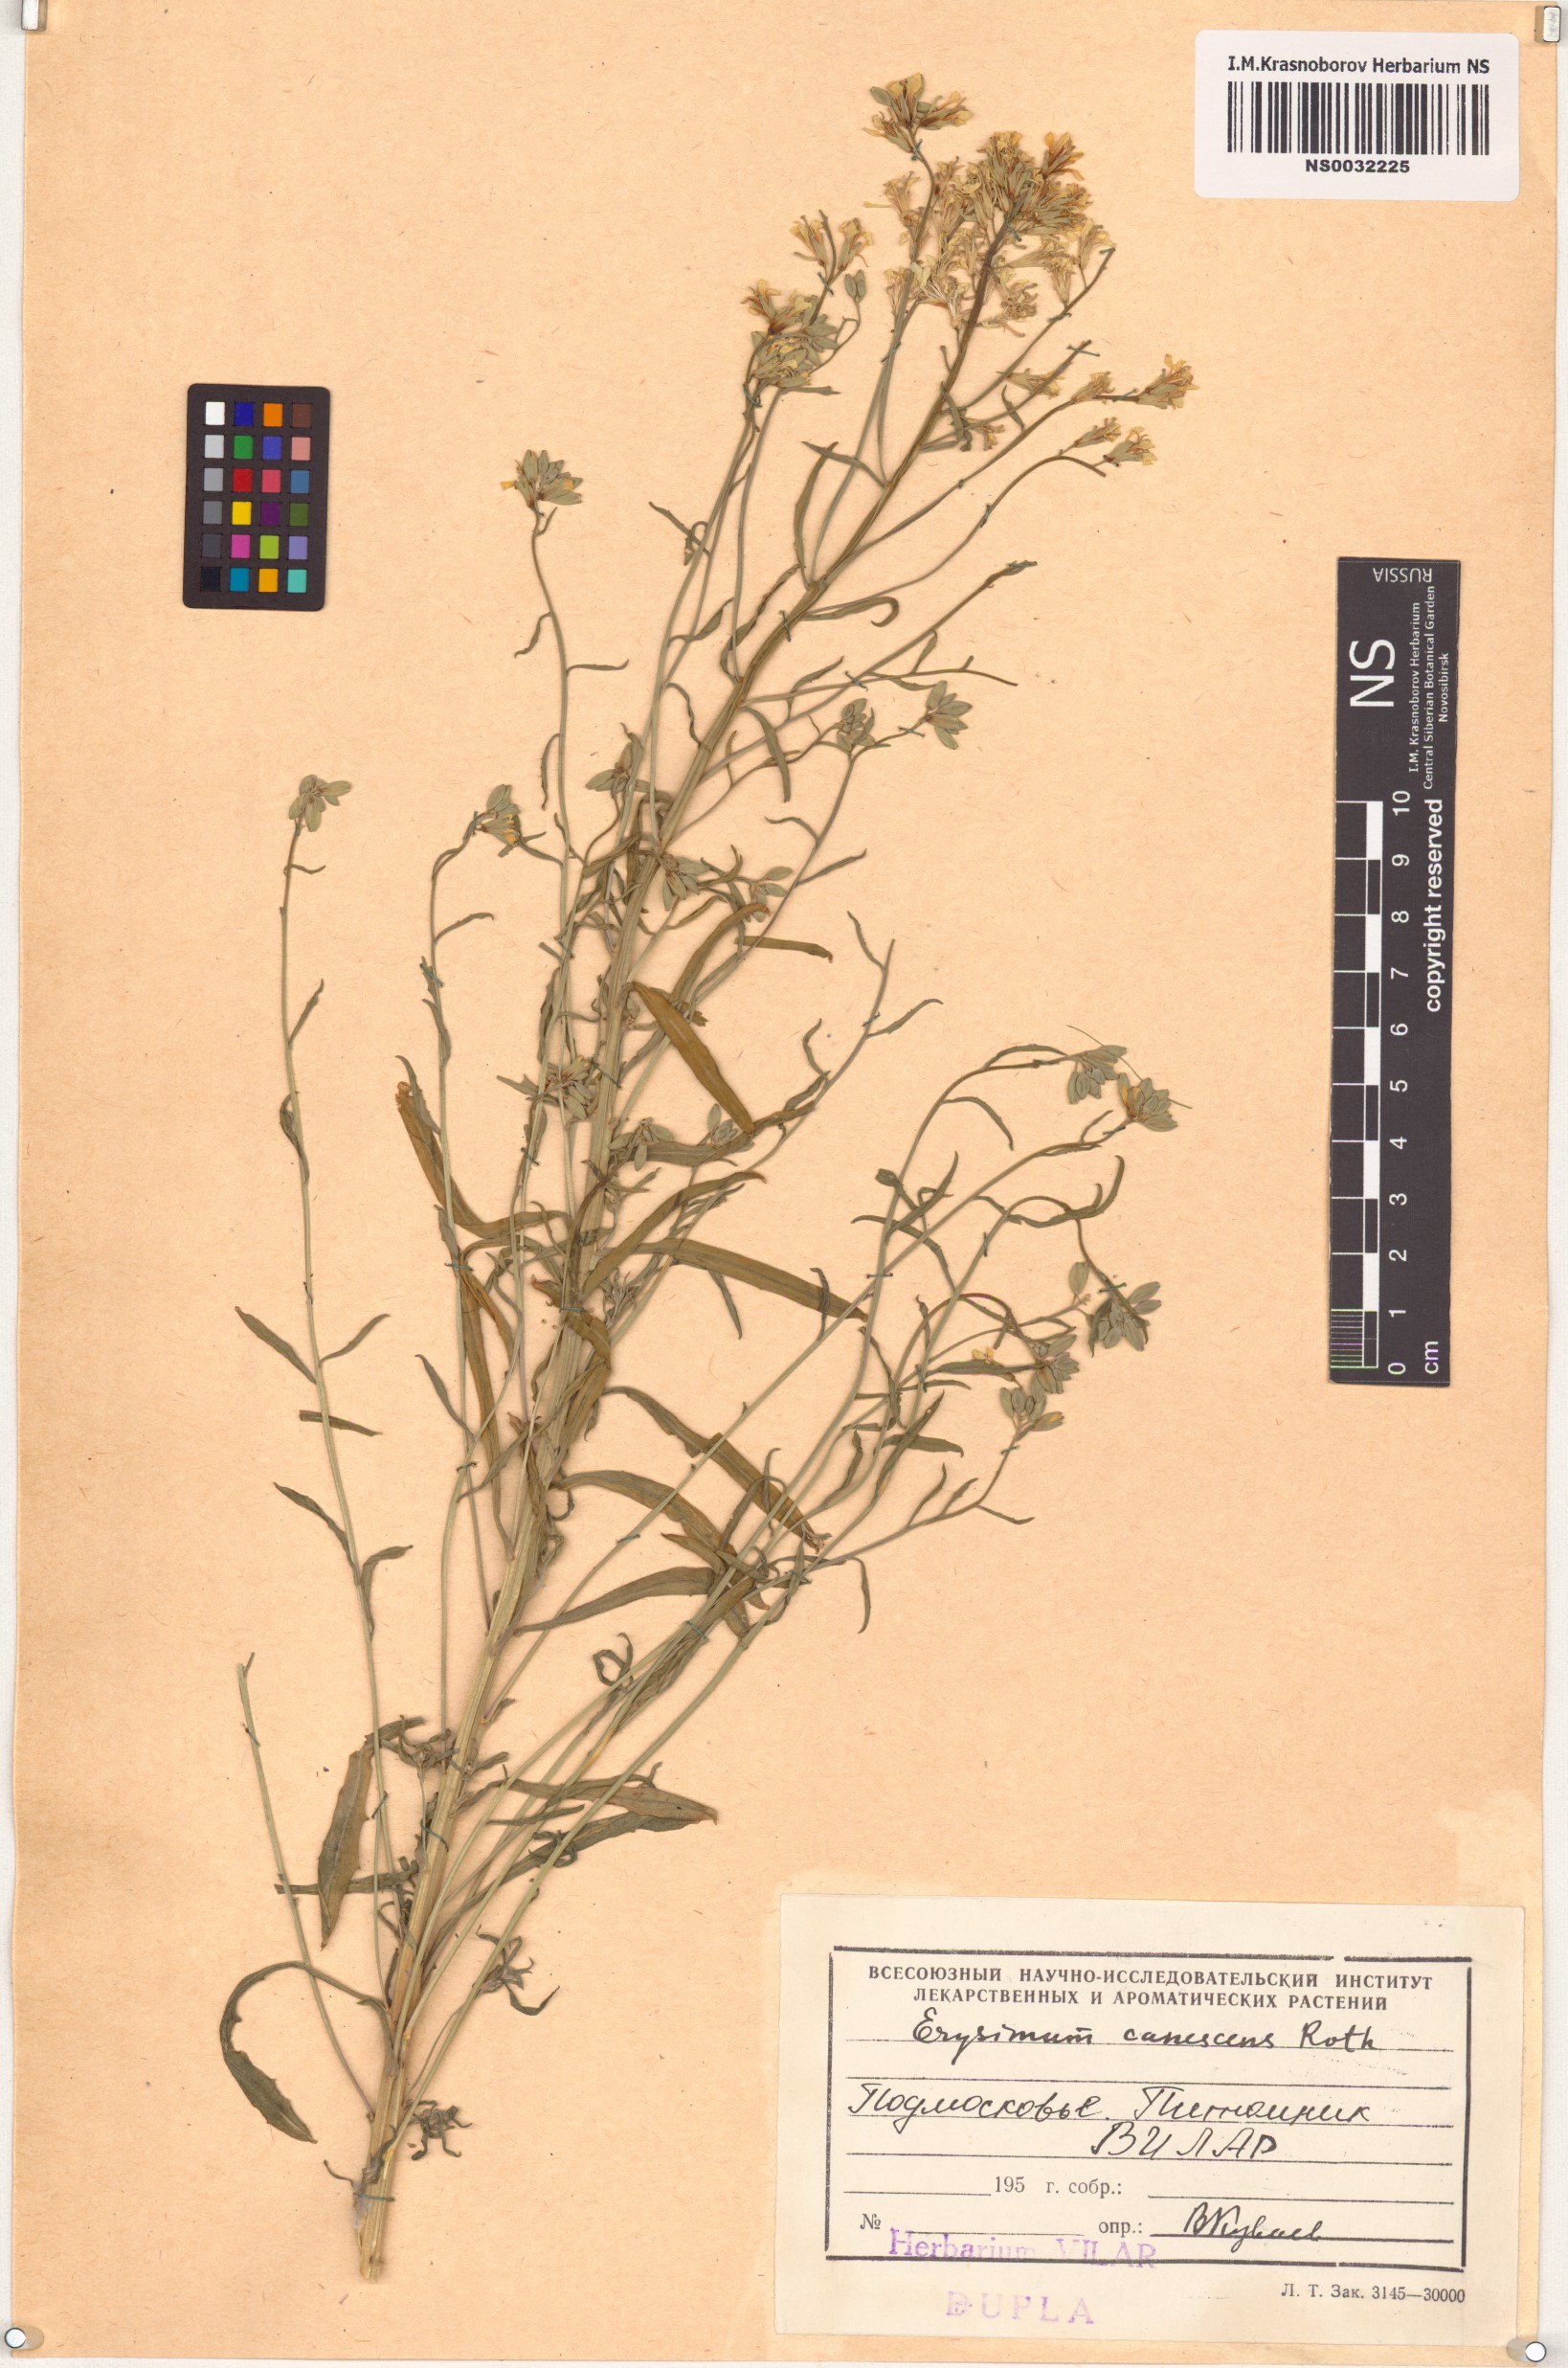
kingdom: Plantae
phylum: Tracheophyta
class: Magnoliopsida
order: Brassicales
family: Brassicaceae
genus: Erysimum
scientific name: Erysimum canescens
